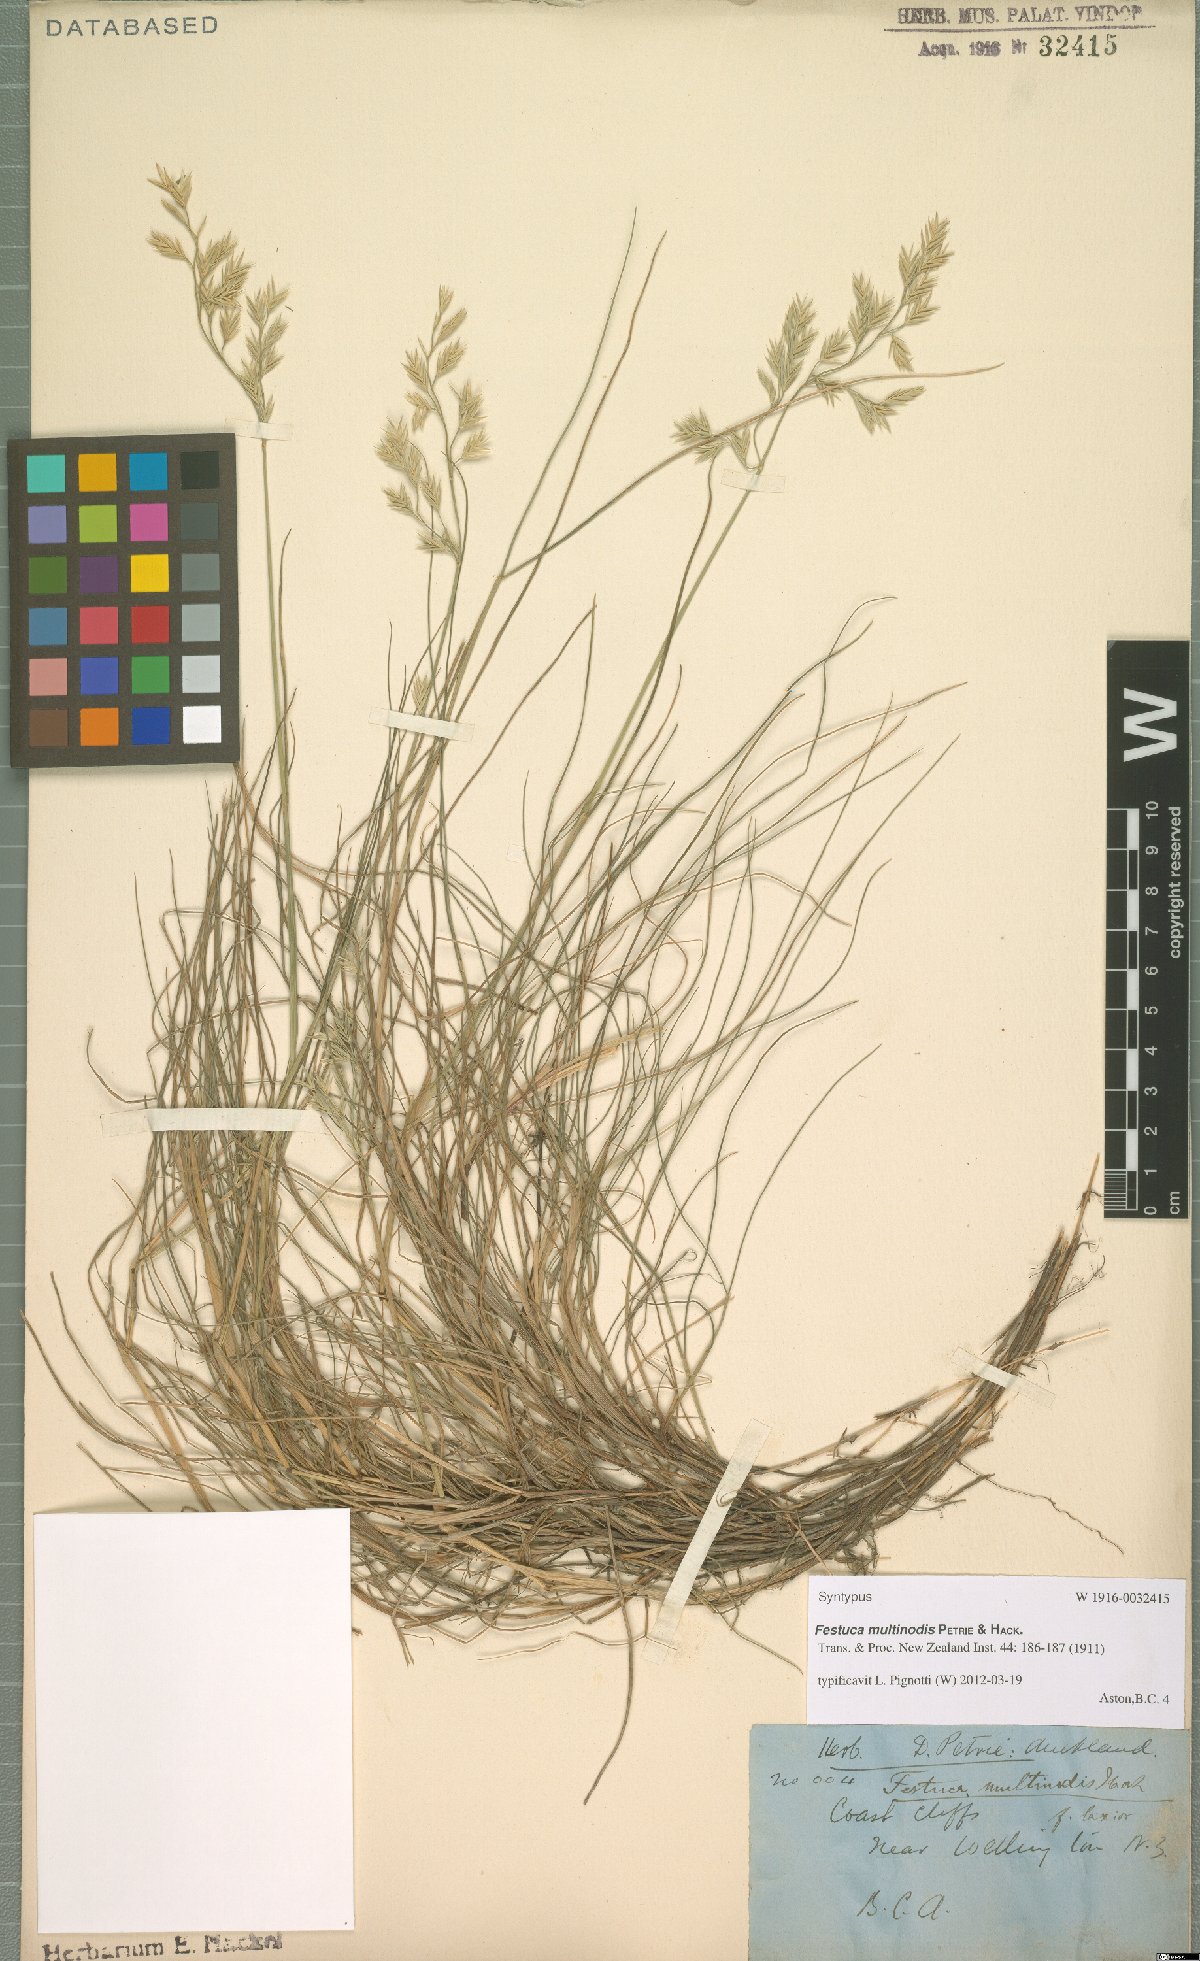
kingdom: Plantae
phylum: Tracheophyta
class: Liliopsida
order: Poales
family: Poaceae
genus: Festuca
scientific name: Festuca multinodis
